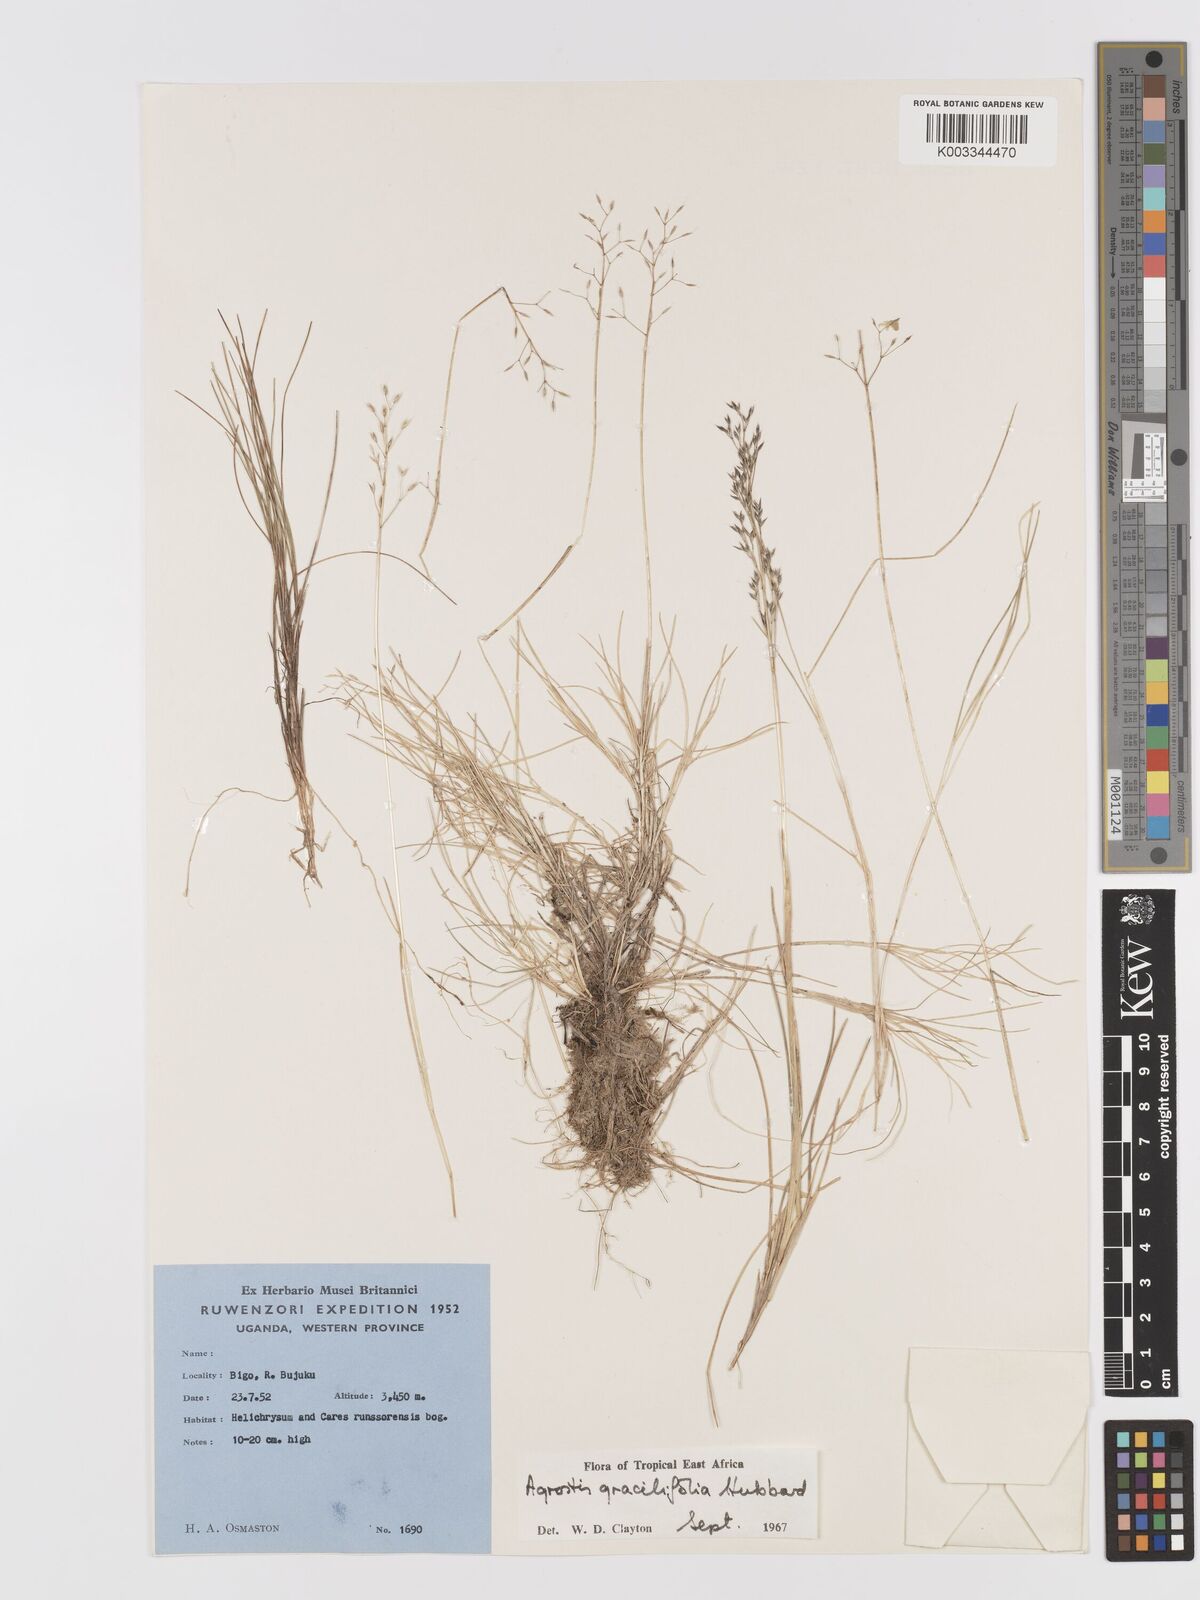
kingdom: Plantae
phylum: Tracheophyta
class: Liliopsida
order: Poales
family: Poaceae
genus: Agrostis
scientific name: Agrostis gracilifolia
